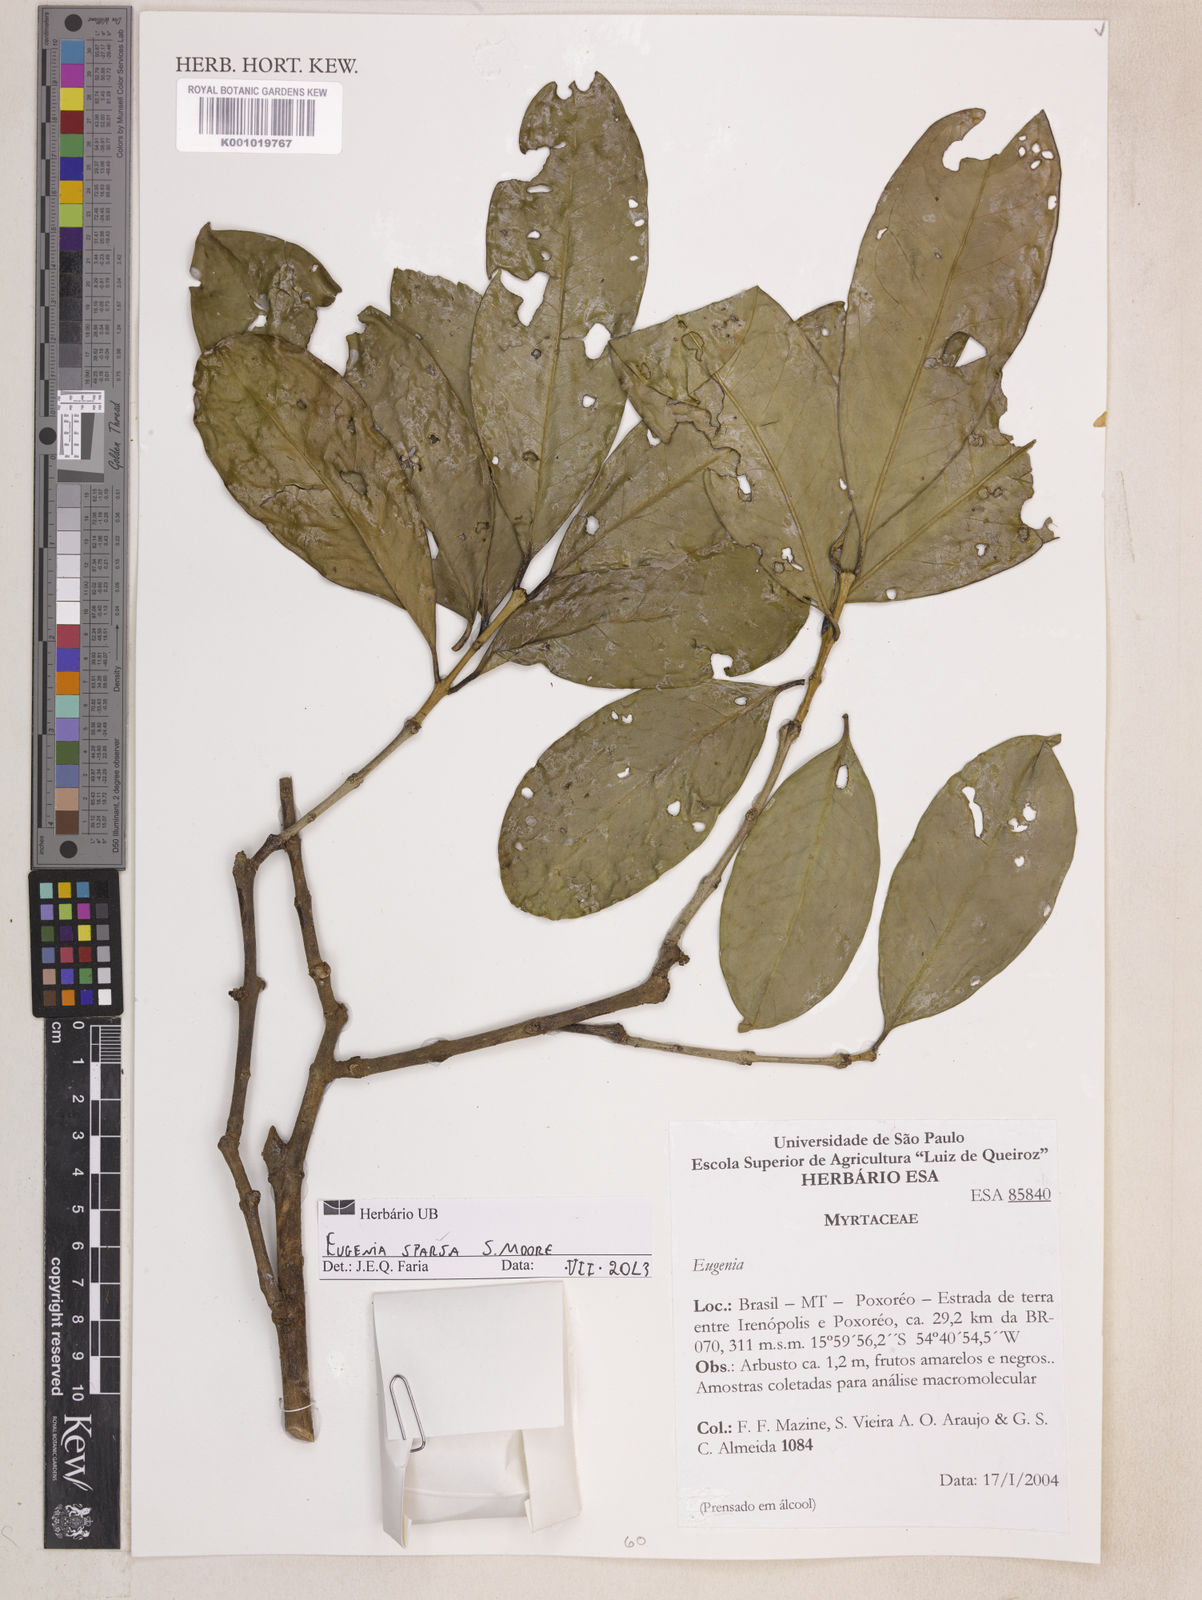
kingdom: Plantae
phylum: Tracheophyta
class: Magnoliopsida
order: Myrtales
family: Myrtaceae
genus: Eugenia
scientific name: Eugenia sparsa
